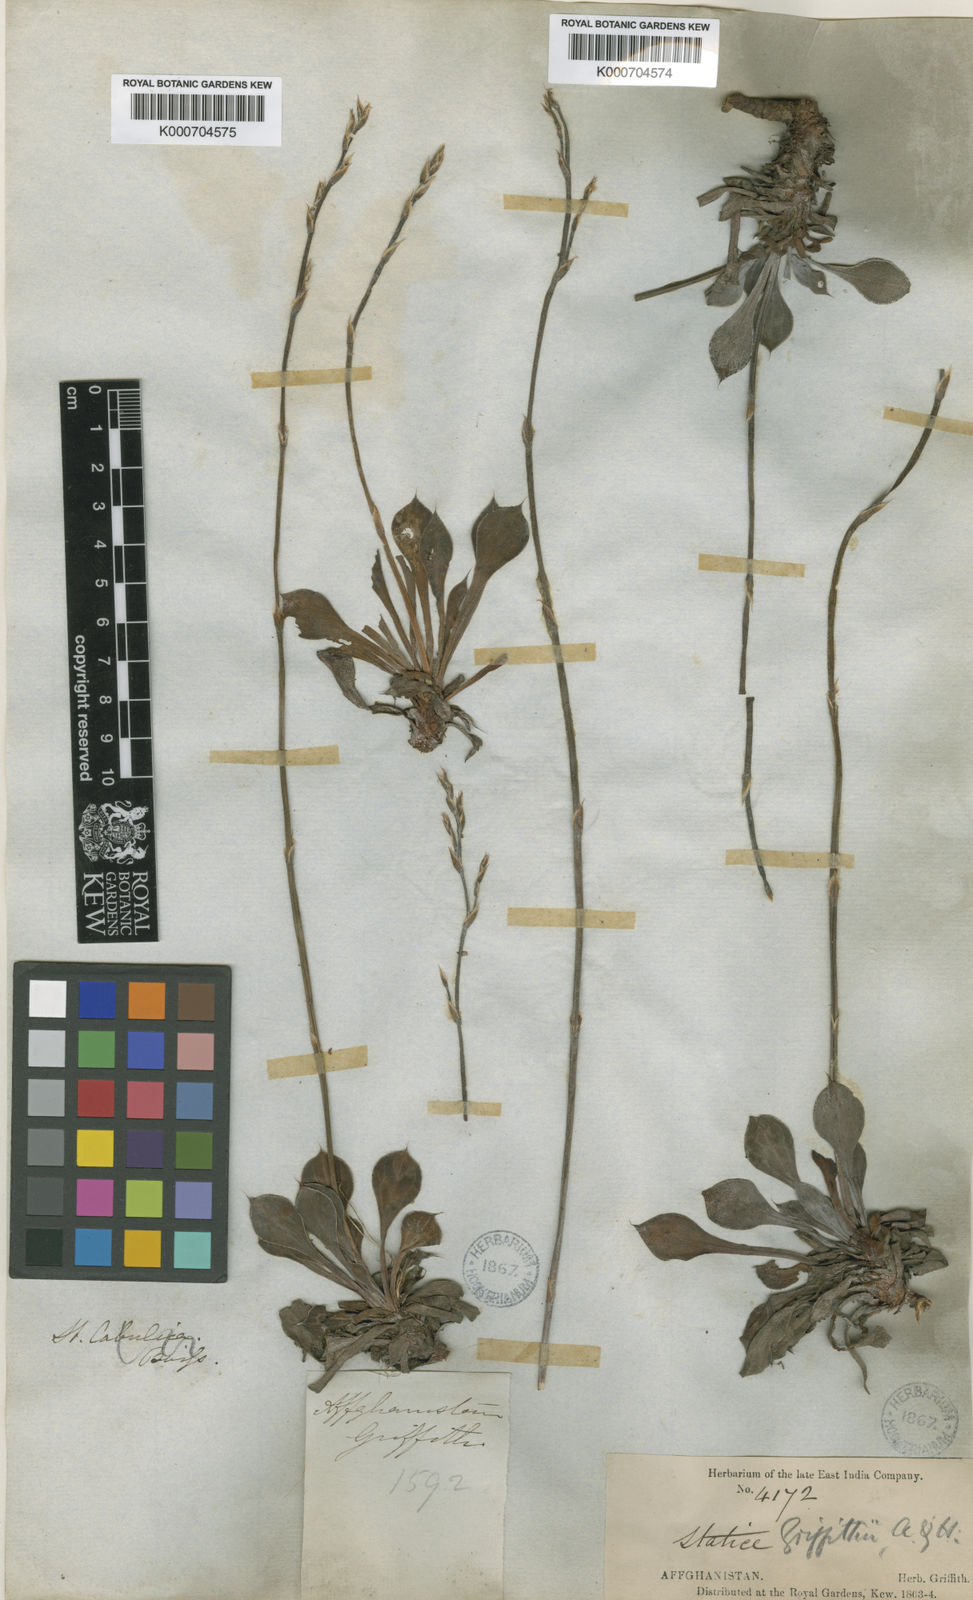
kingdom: Plantae
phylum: Tracheophyta
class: Magnoliopsida
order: Caryophyllales
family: Plumbaginaceae
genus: Dictyolimon
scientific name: Dictyolimon griffithii
